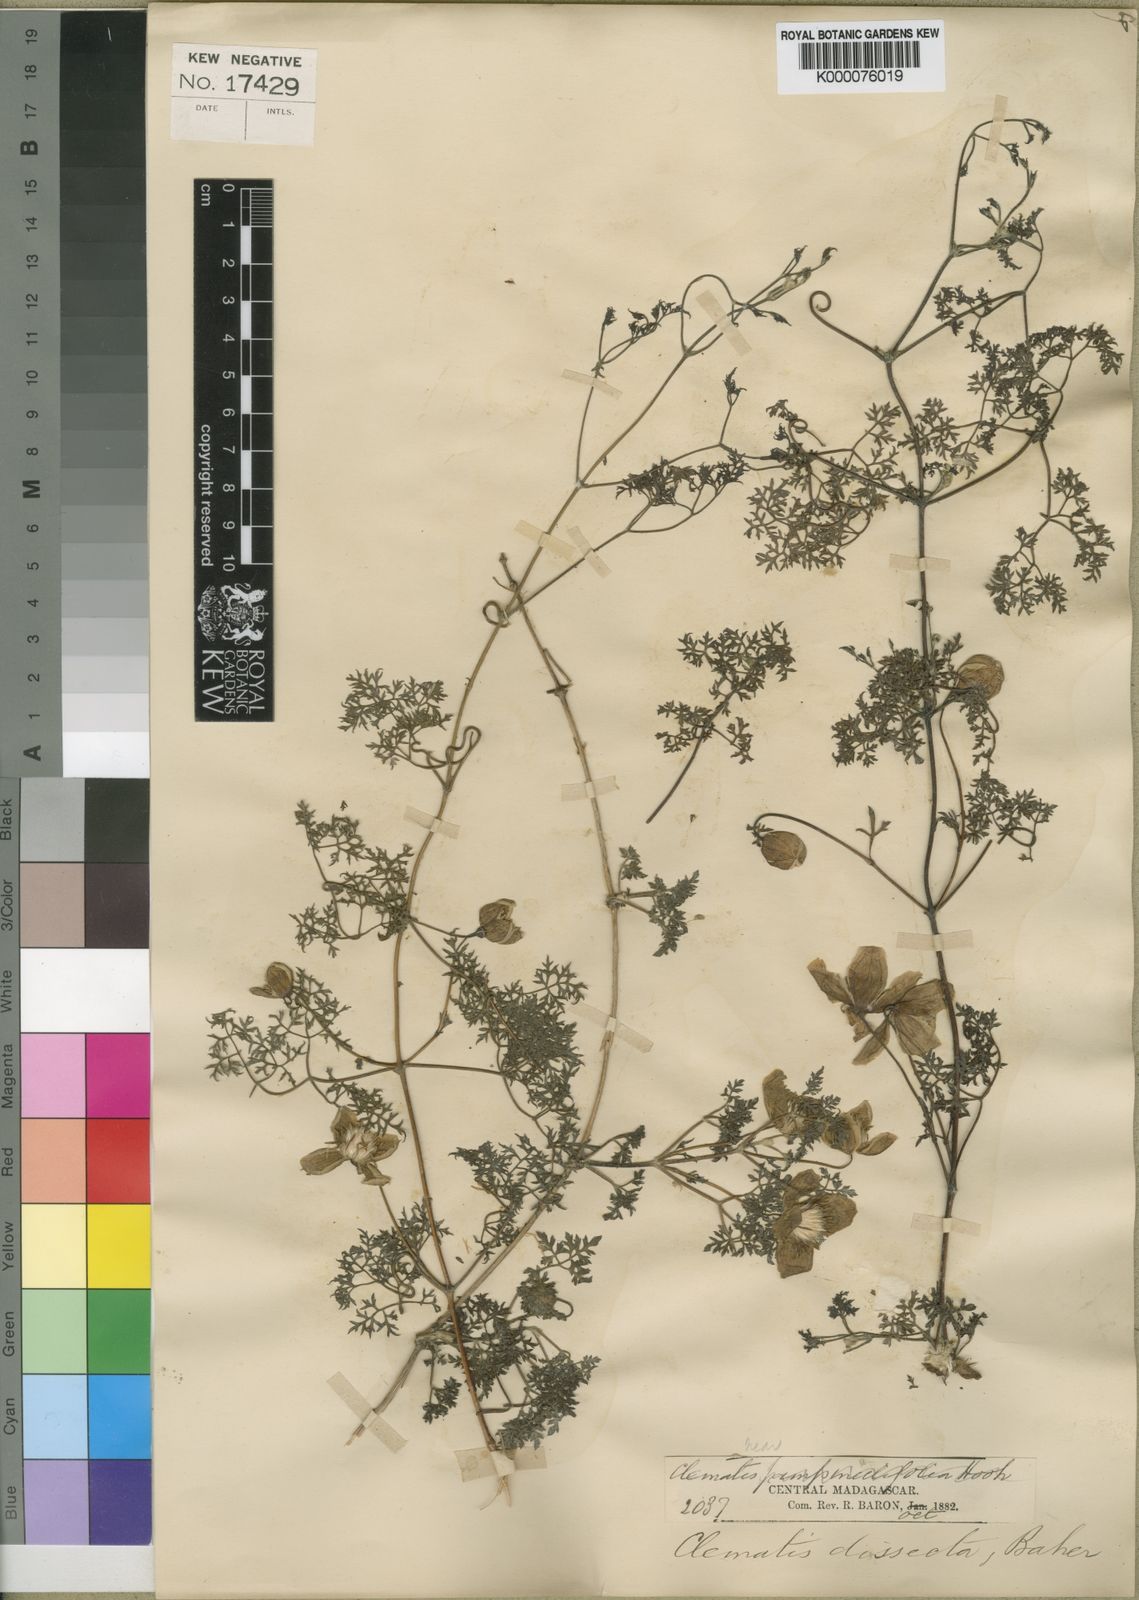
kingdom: Plantae
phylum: Tracheophyta
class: Magnoliopsida
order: Ranunculales
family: Ranunculaceae
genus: Clematis
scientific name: Clematis oligophylla
